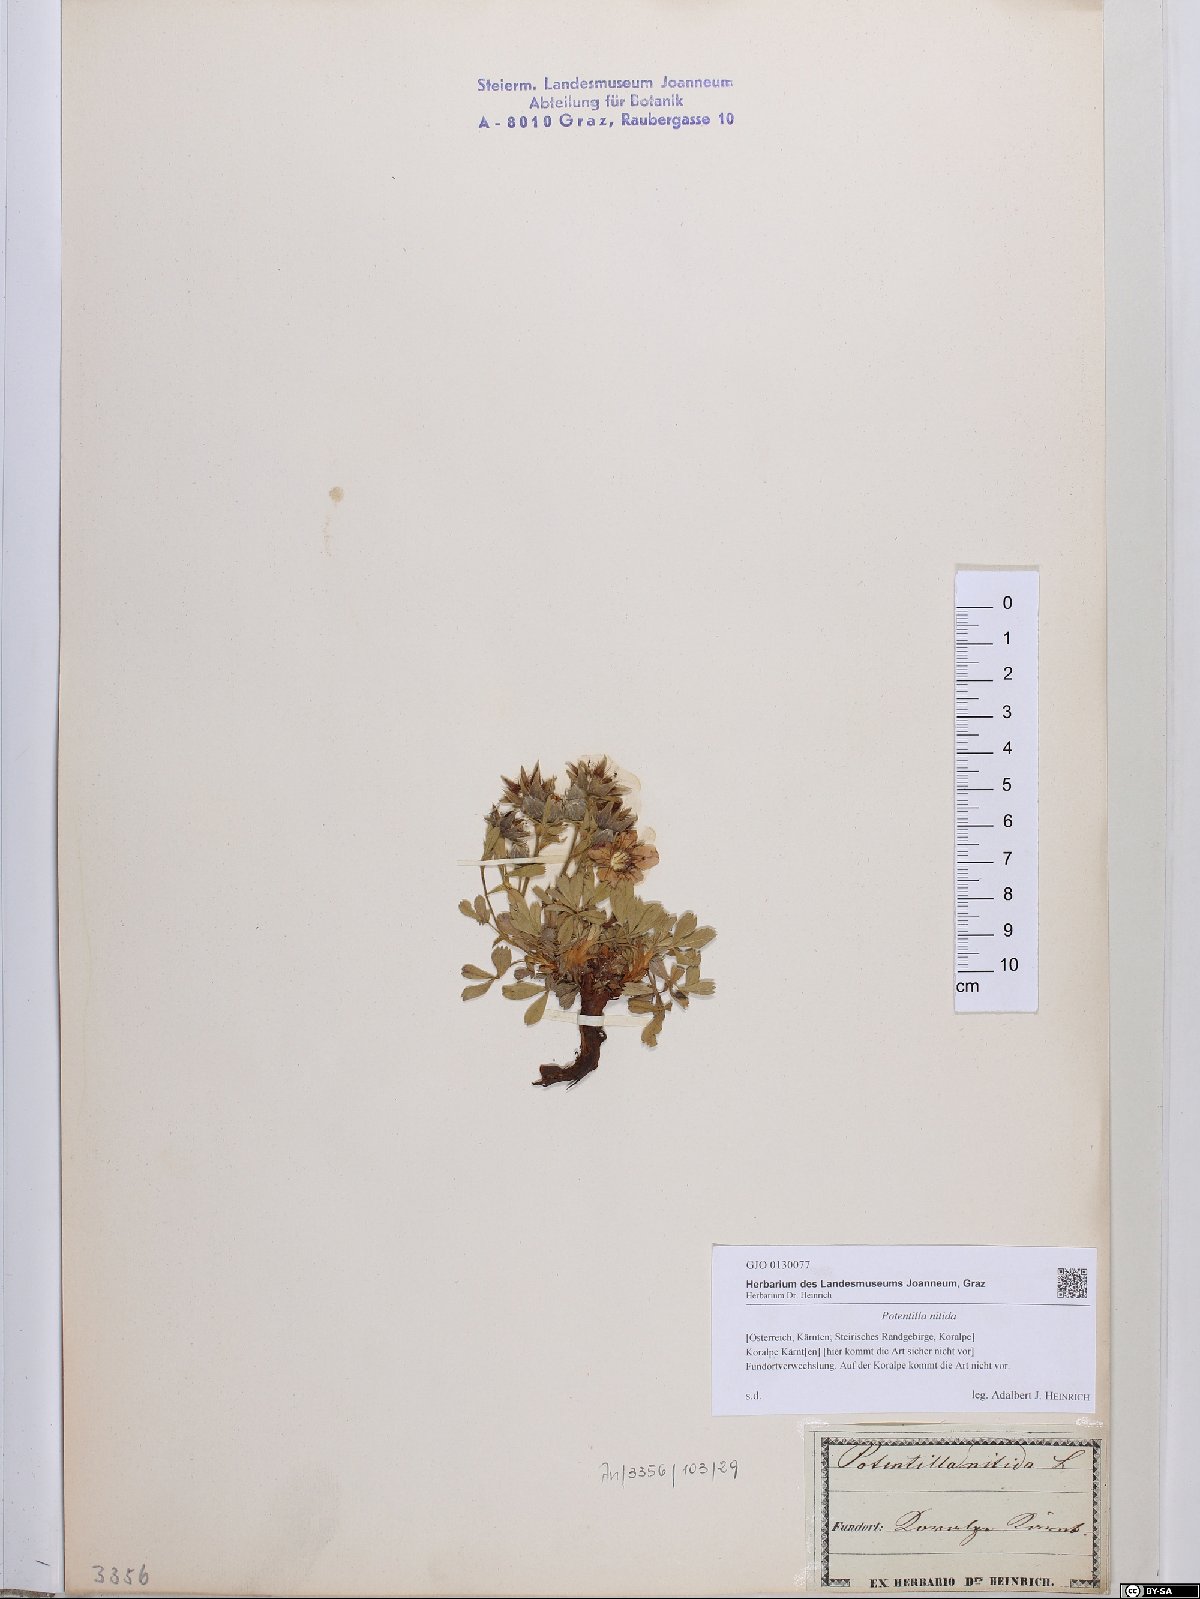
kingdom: Plantae
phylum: Tracheophyta
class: Magnoliopsida
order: Rosales
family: Rosaceae
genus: Potentilla
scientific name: Potentilla nitida
